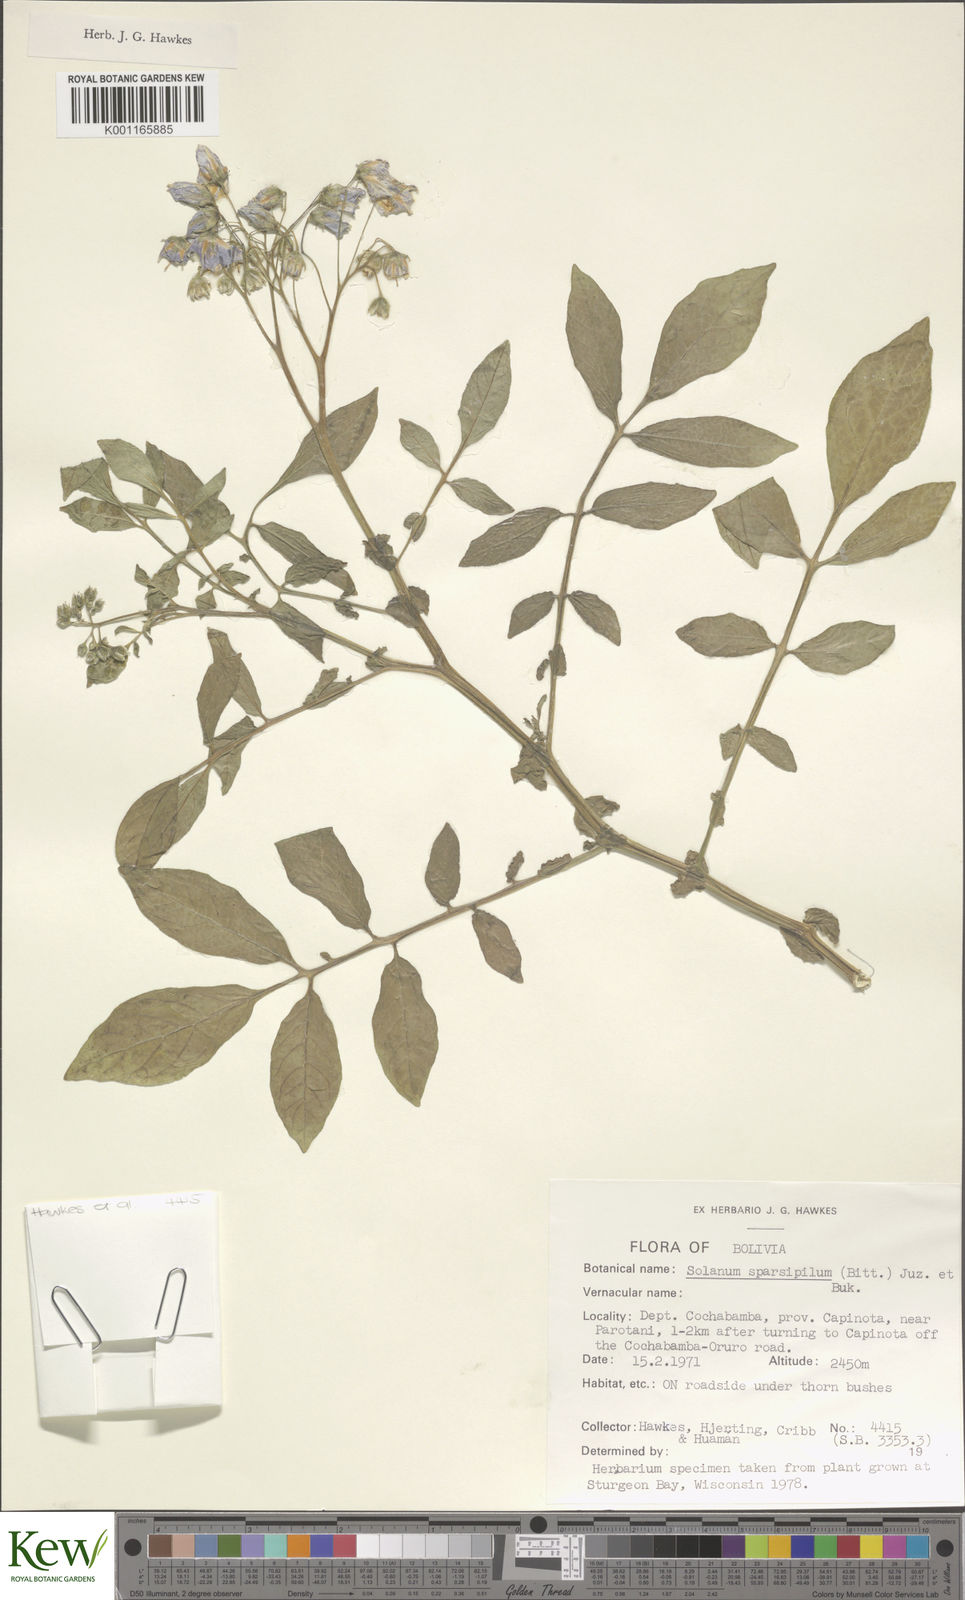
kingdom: Plantae
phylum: Tracheophyta
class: Magnoliopsida
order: Solanales
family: Solanaceae
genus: Solanum
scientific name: Solanum brevicaule
